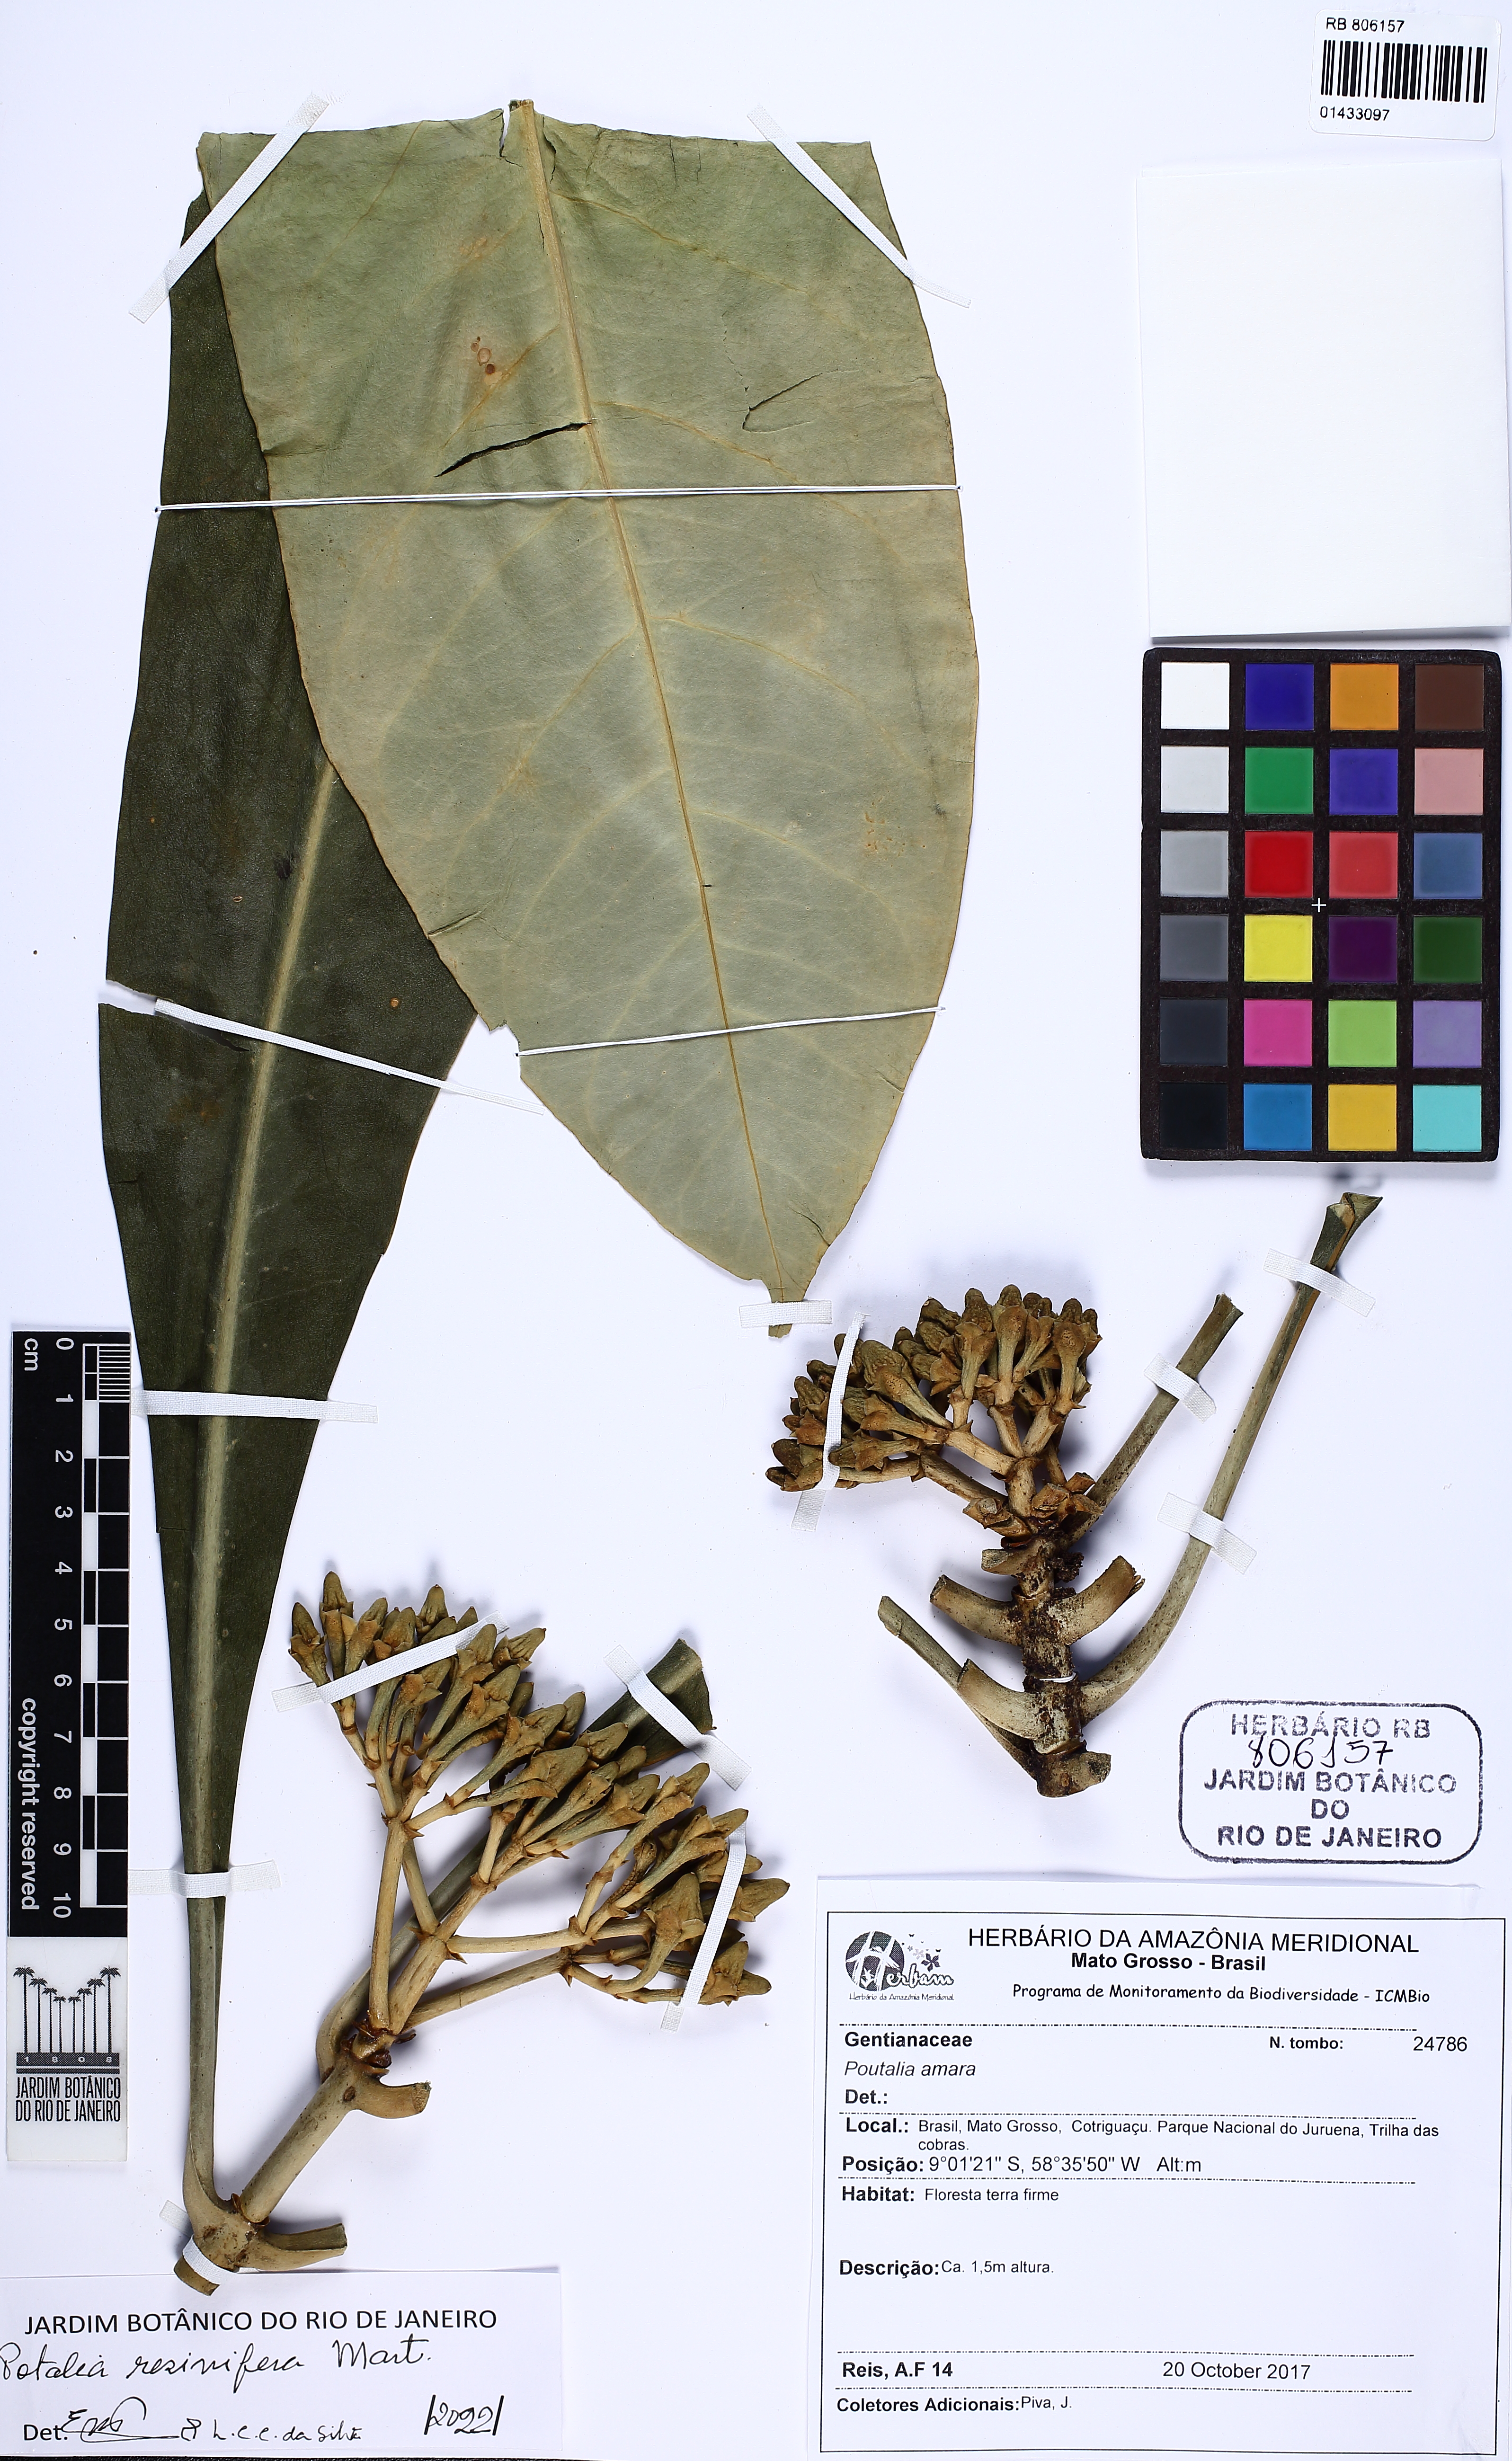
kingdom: Plantae
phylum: Tracheophyta
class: Magnoliopsida
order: Gentianales
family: Gentianaceae
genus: Potalia
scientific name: Potalia resinifera
